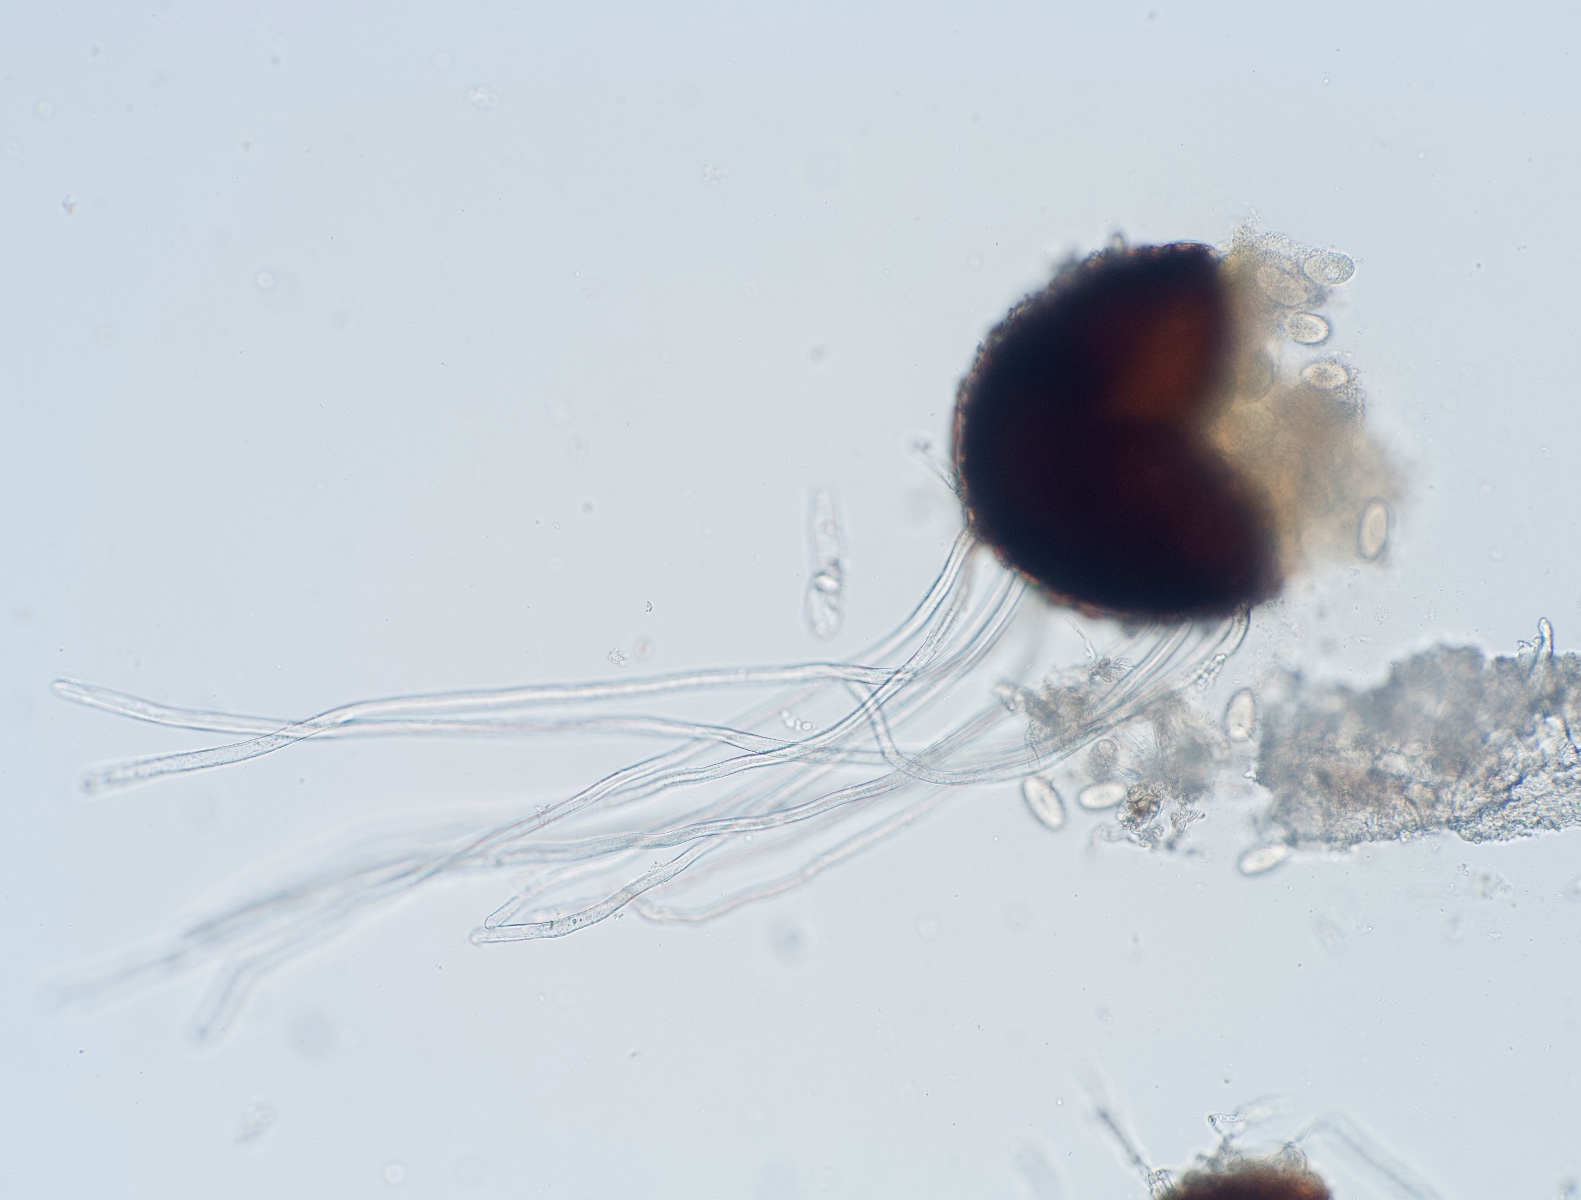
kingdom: Fungi
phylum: Ascomycota
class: Leotiomycetes
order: Helotiales
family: Erysiphaceae
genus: Erysiphe
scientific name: Erysiphe astragali
